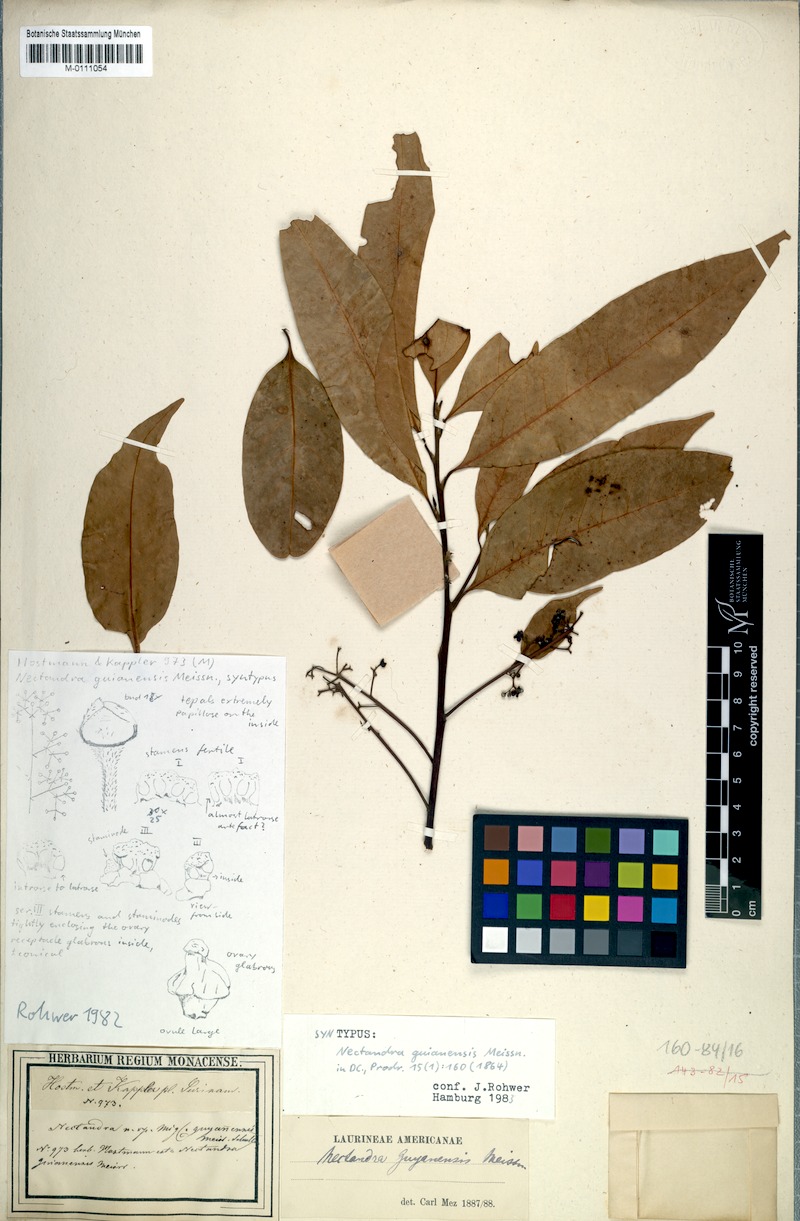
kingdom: Plantae
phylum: Tracheophyta
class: Magnoliopsida
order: Laurales
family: Lauraceae
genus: Nectandra
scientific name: Nectandra sanguinea
